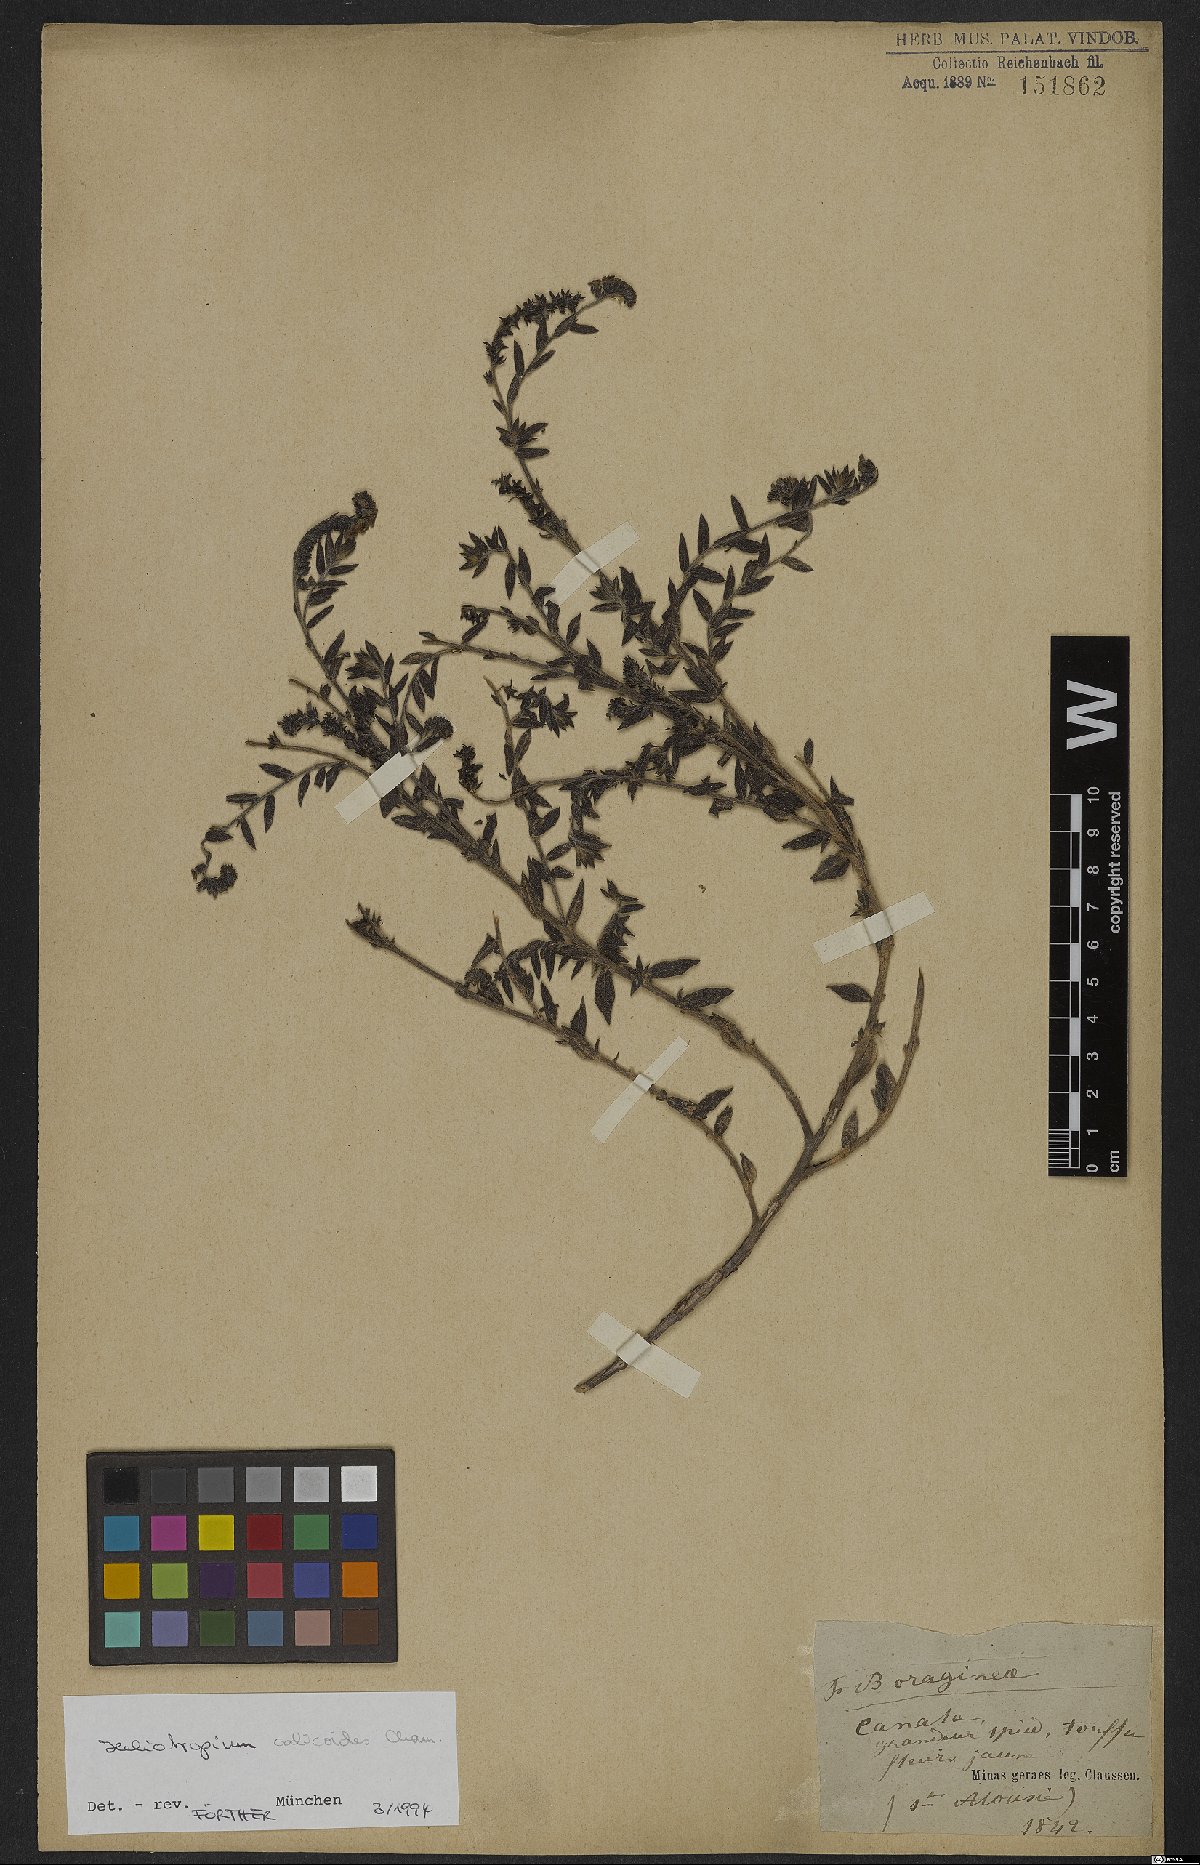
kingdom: Plantae
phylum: Tracheophyta
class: Magnoliopsida
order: Boraginales
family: Heliotropiaceae
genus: Heliotropium
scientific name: Heliotropium
